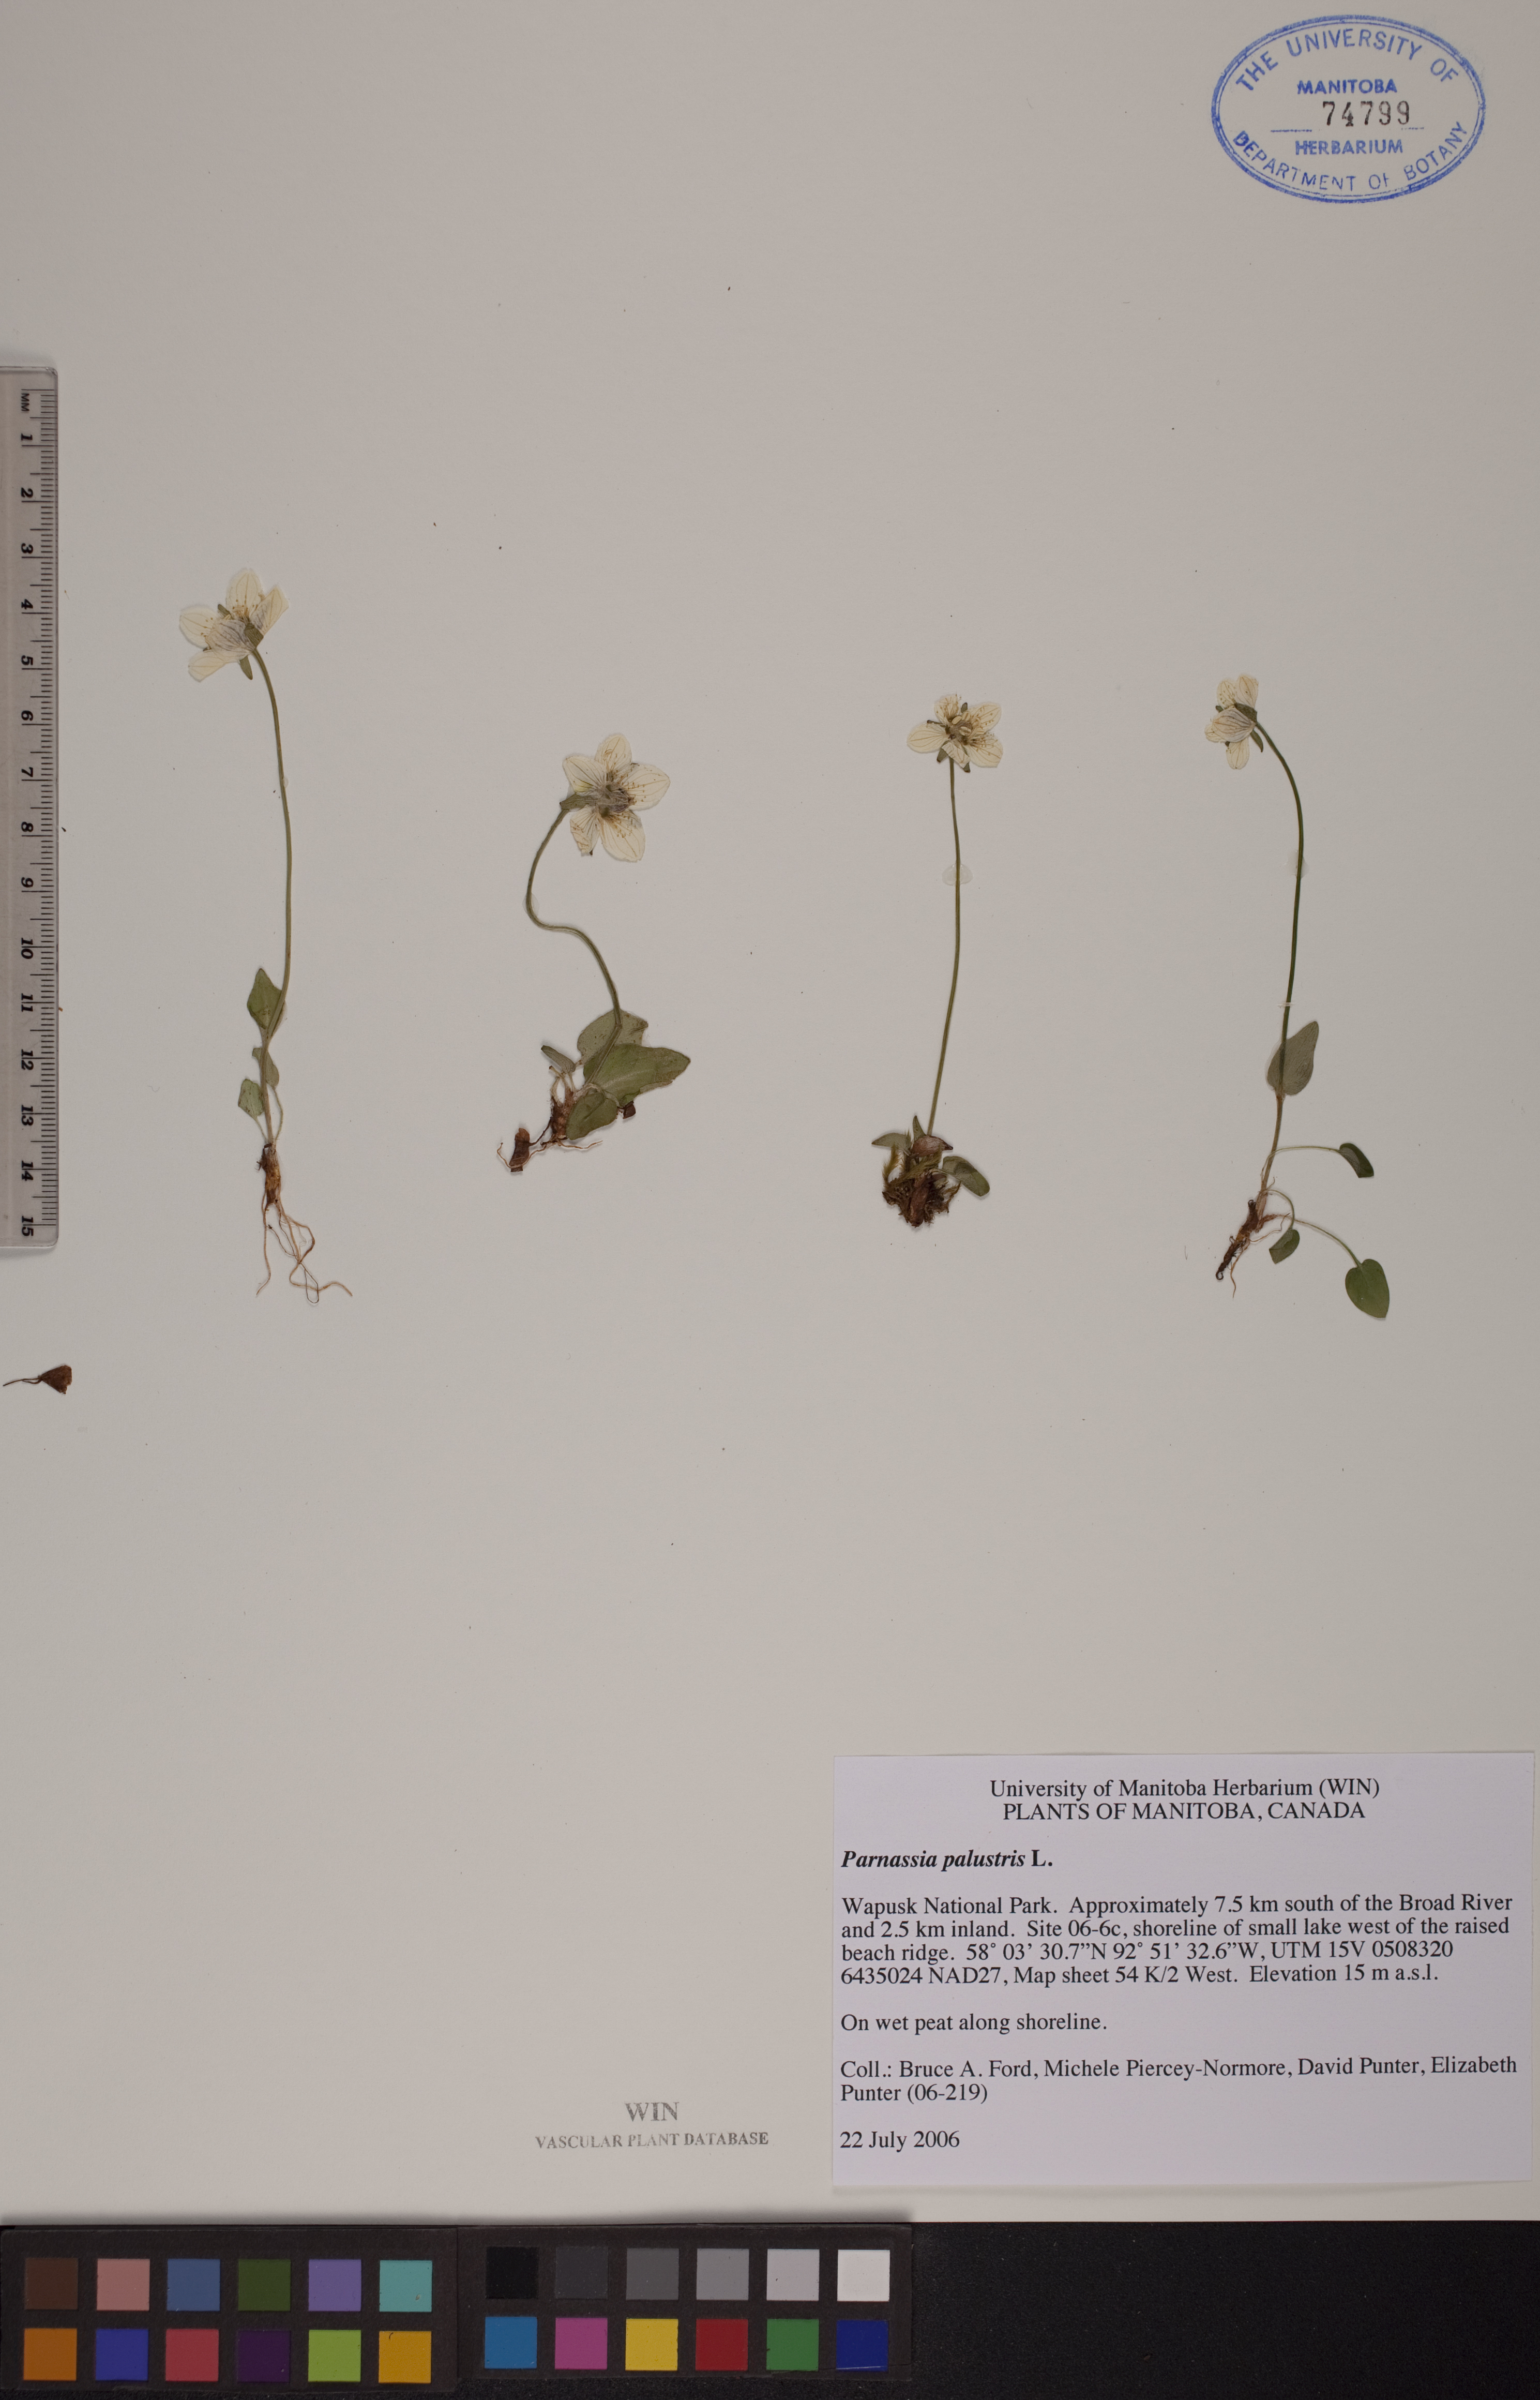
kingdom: Plantae
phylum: Tracheophyta
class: Magnoliopsida
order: Celastrales
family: Parnassiaceae
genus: Parnassia
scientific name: Parnassia palustris
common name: Grass-of-parnassus
